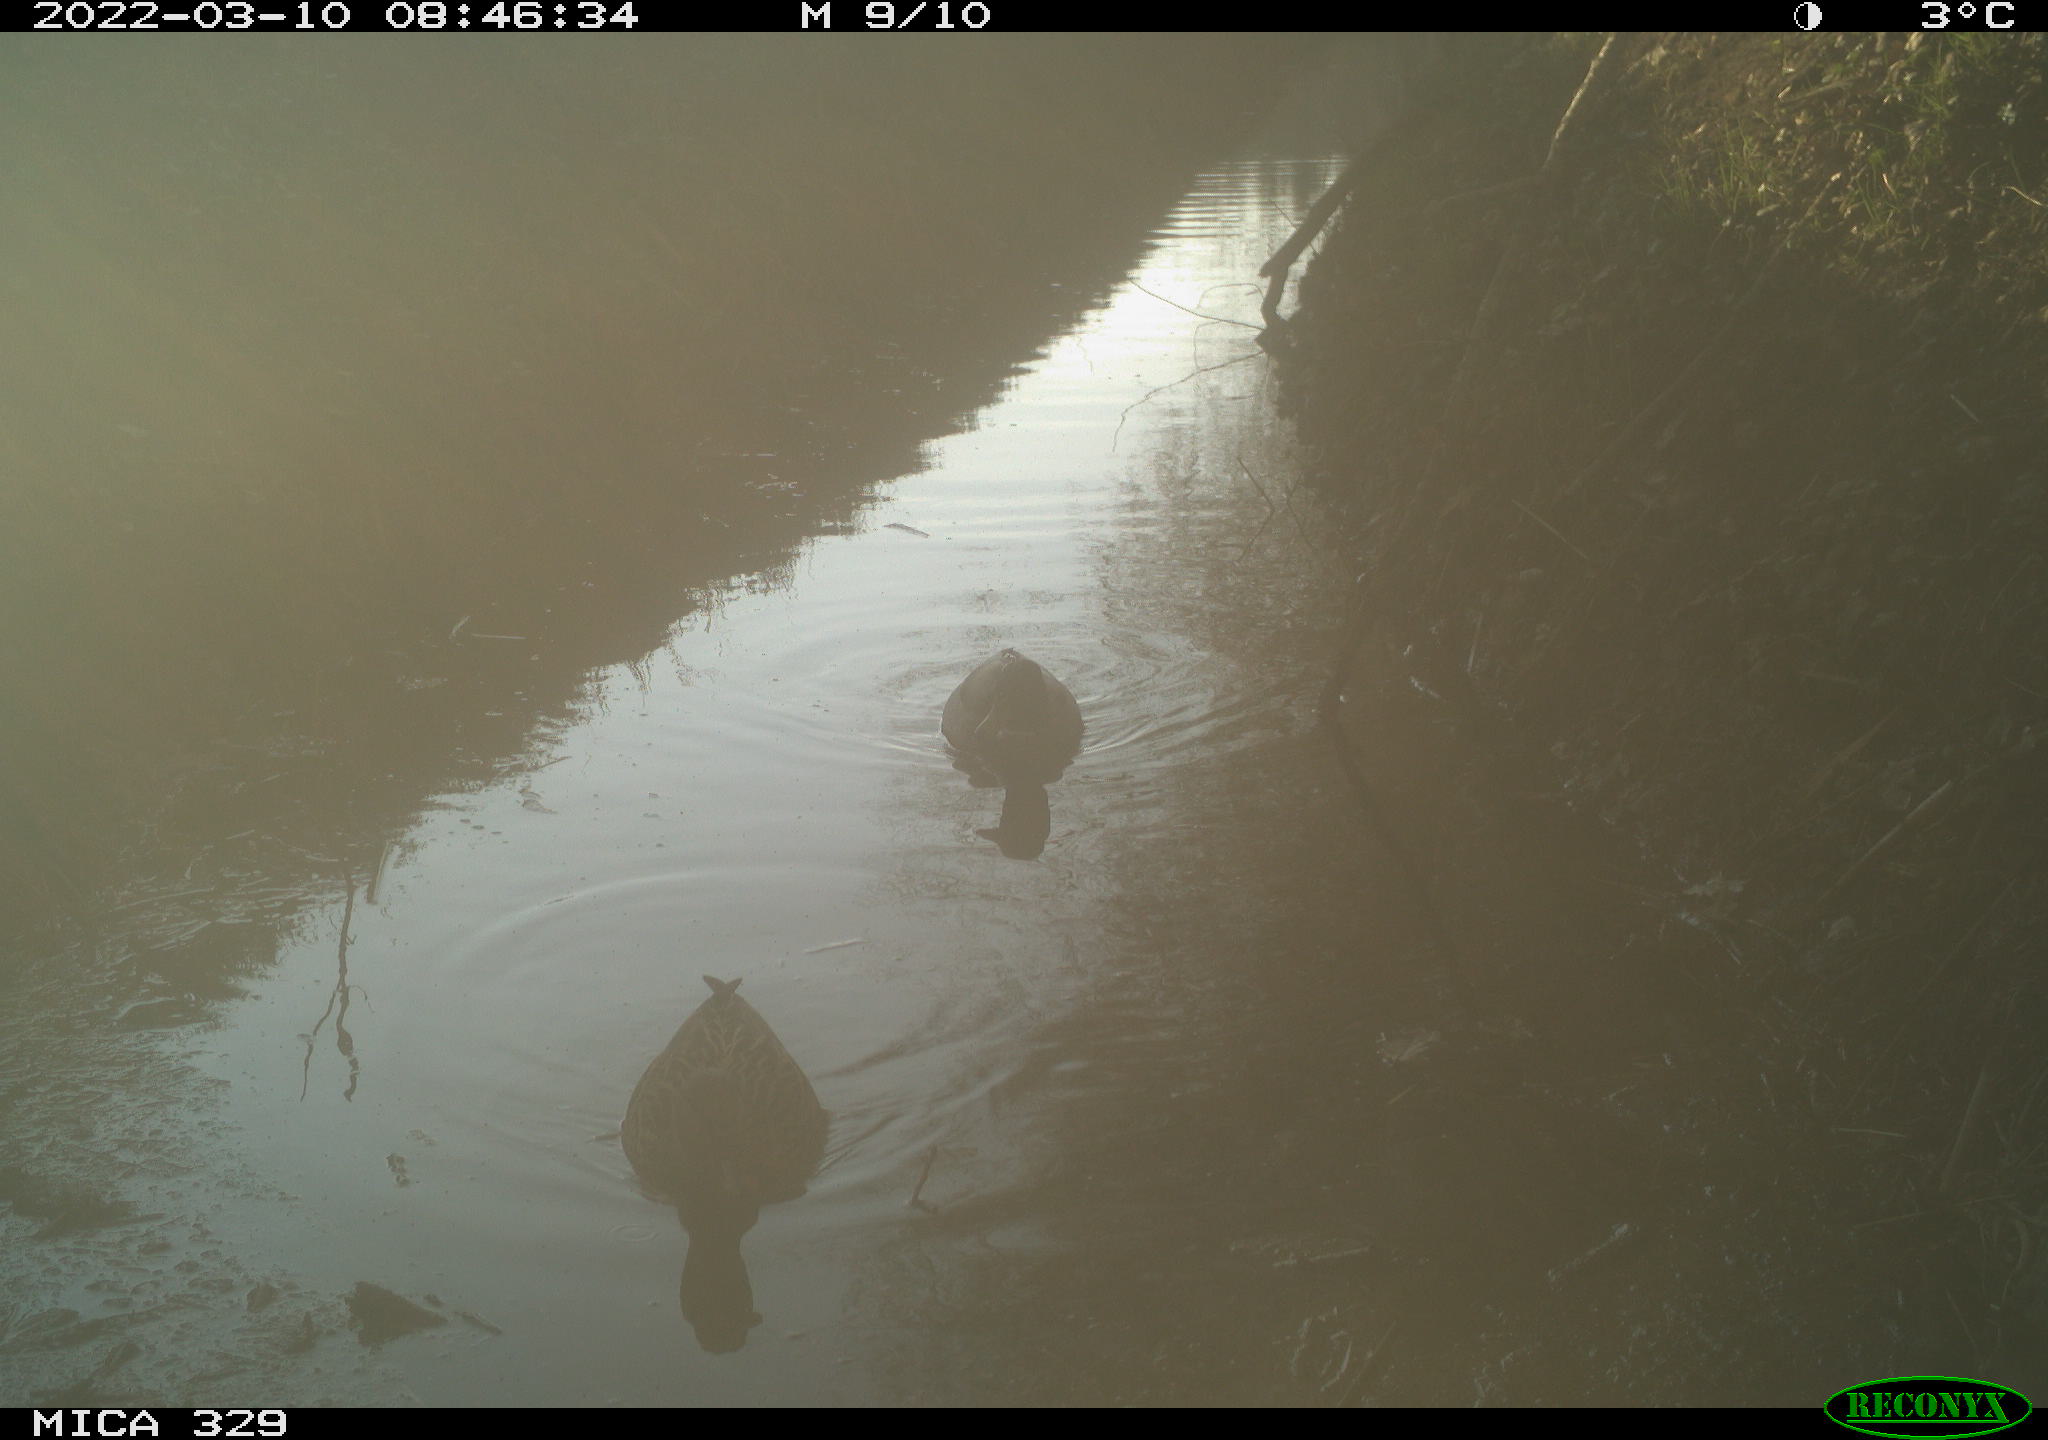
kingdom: Animalia
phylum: Chordata
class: Aves
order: Anseriformes
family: Anatidae
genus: Anas
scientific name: Anas platyrhynchos
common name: Mallard
